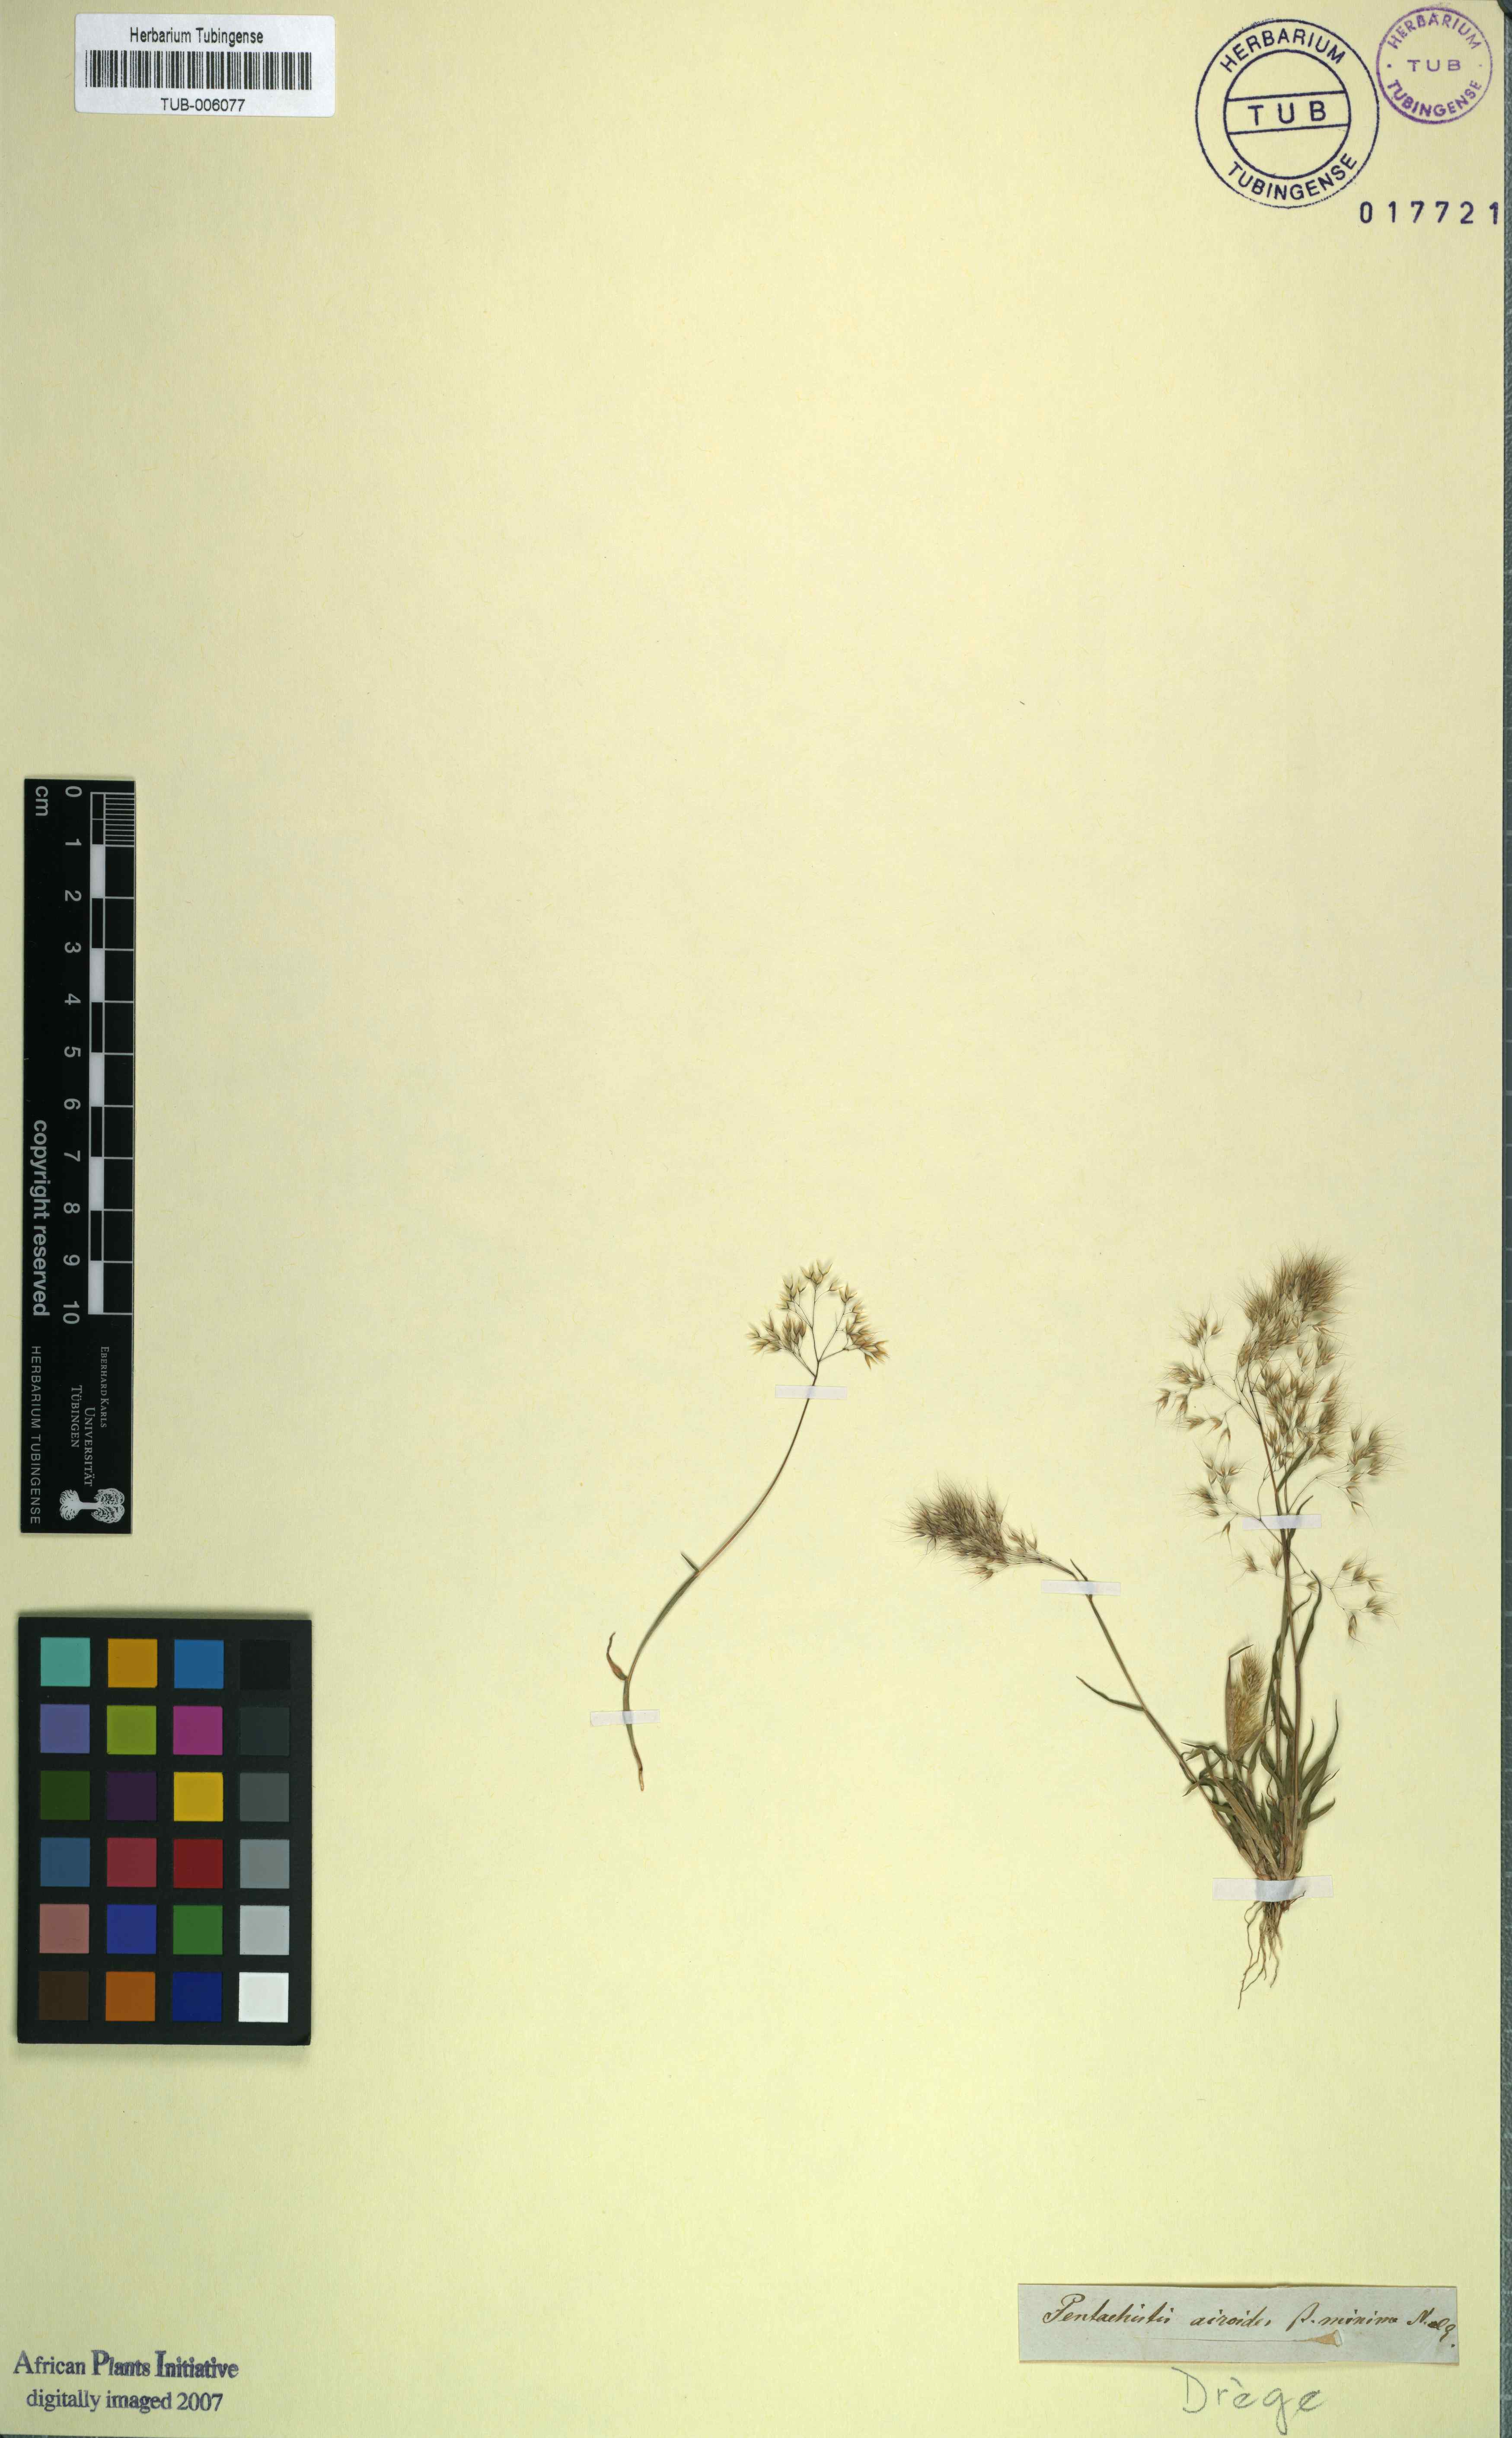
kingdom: Plantae
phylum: Tracheophyta
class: Liliopsida
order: Poales
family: Poaceae
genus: Pentameris
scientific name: Pentameris airoides
